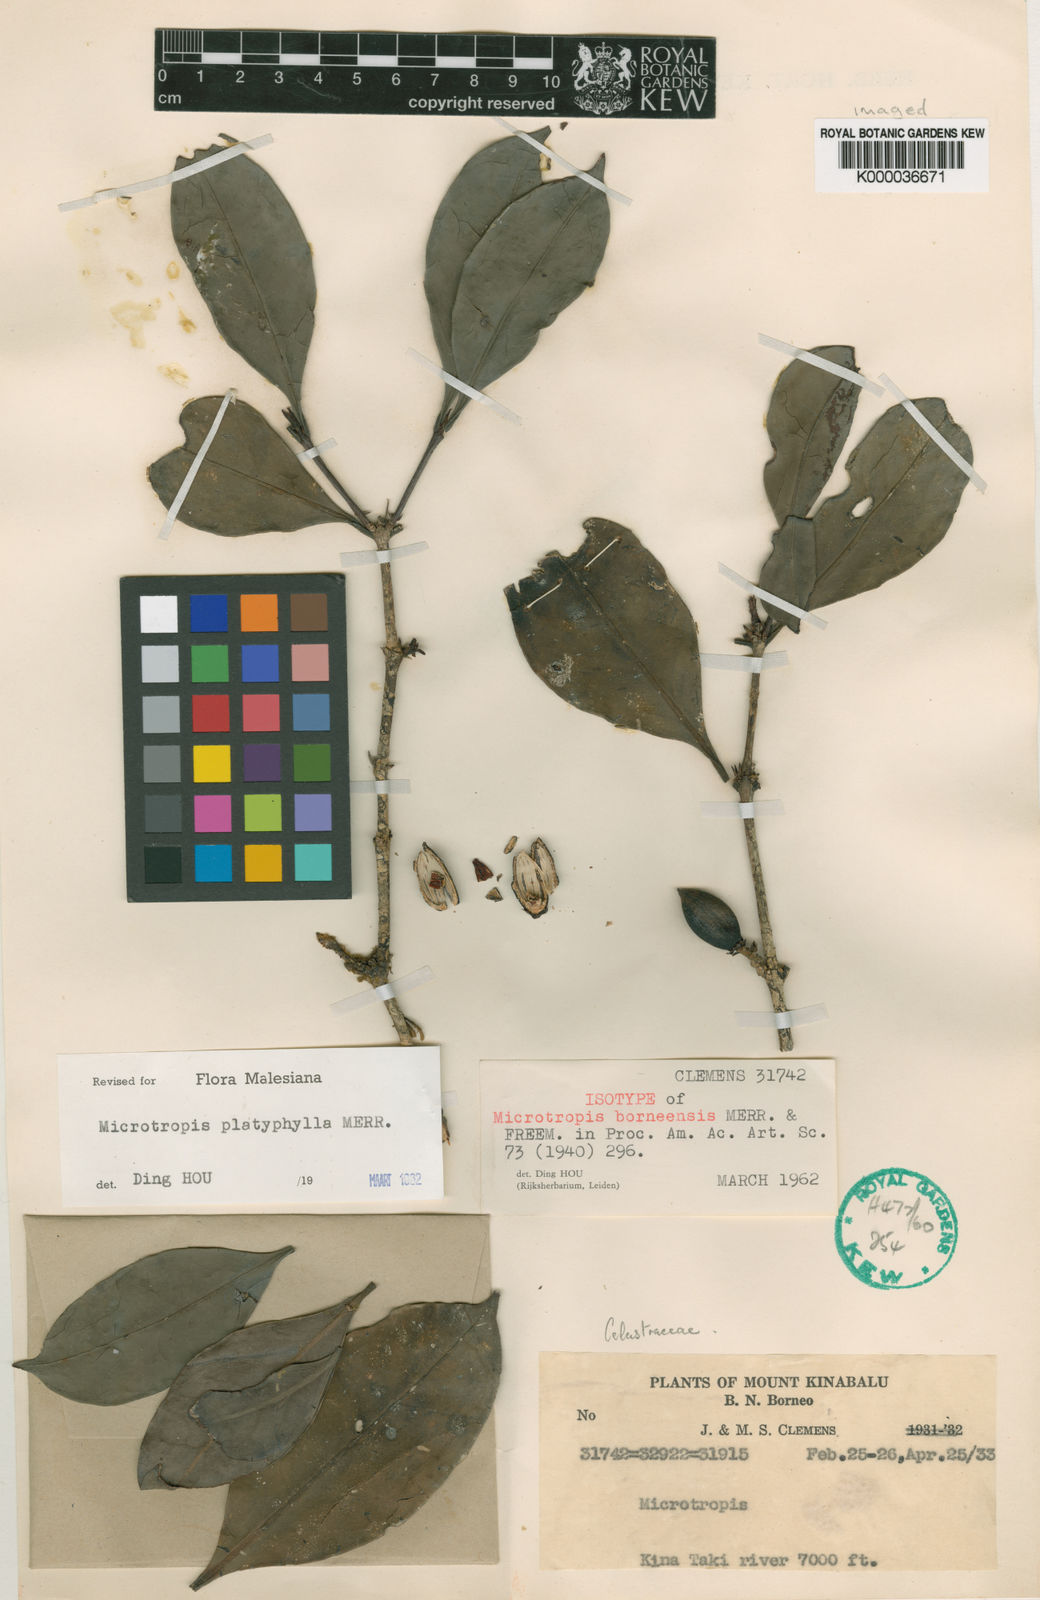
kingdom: Plantae
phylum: Tracheophyta
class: Magnoliopsida
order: Celastrales
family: Celastraceae
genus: Microtropis
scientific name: Microtropis platyphylla
